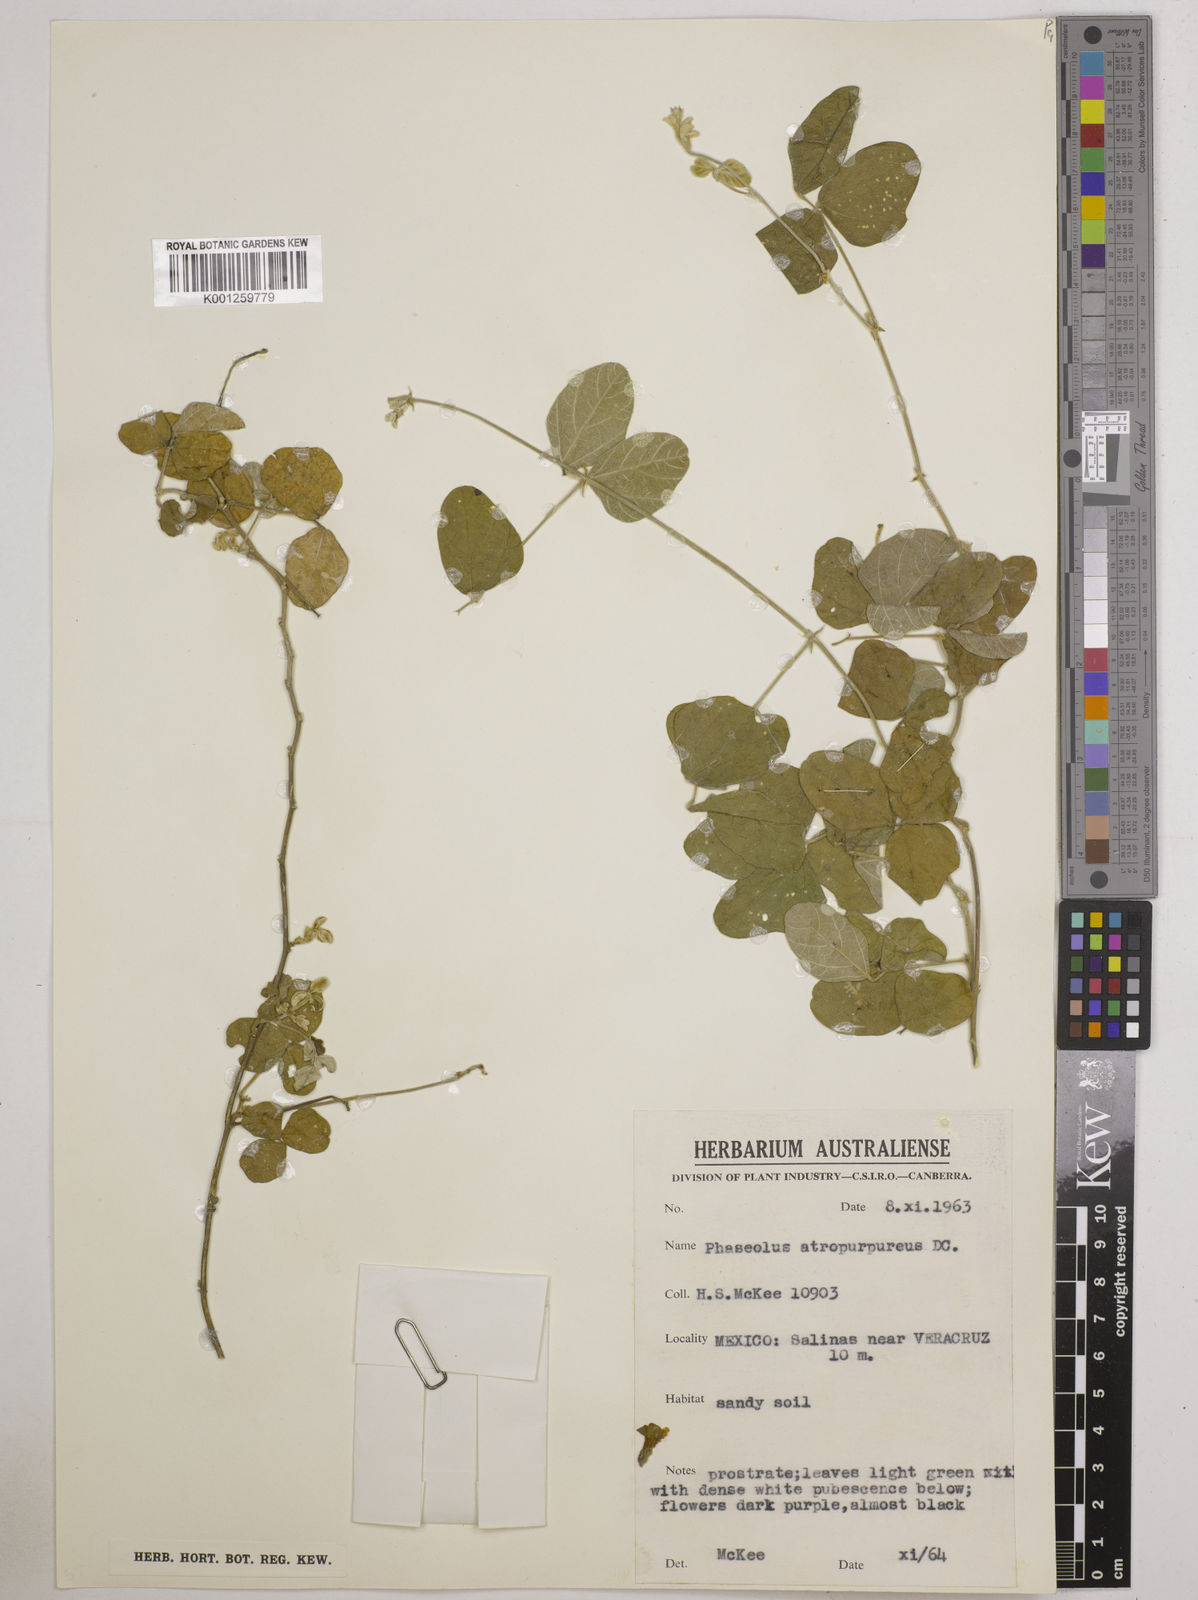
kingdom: Plantae
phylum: Tracheophyta
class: Magnoliopsida
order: Fabales
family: Fabaceae
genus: Macroptilium
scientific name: Macroptilium atropurpureum
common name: Purple bushbean
